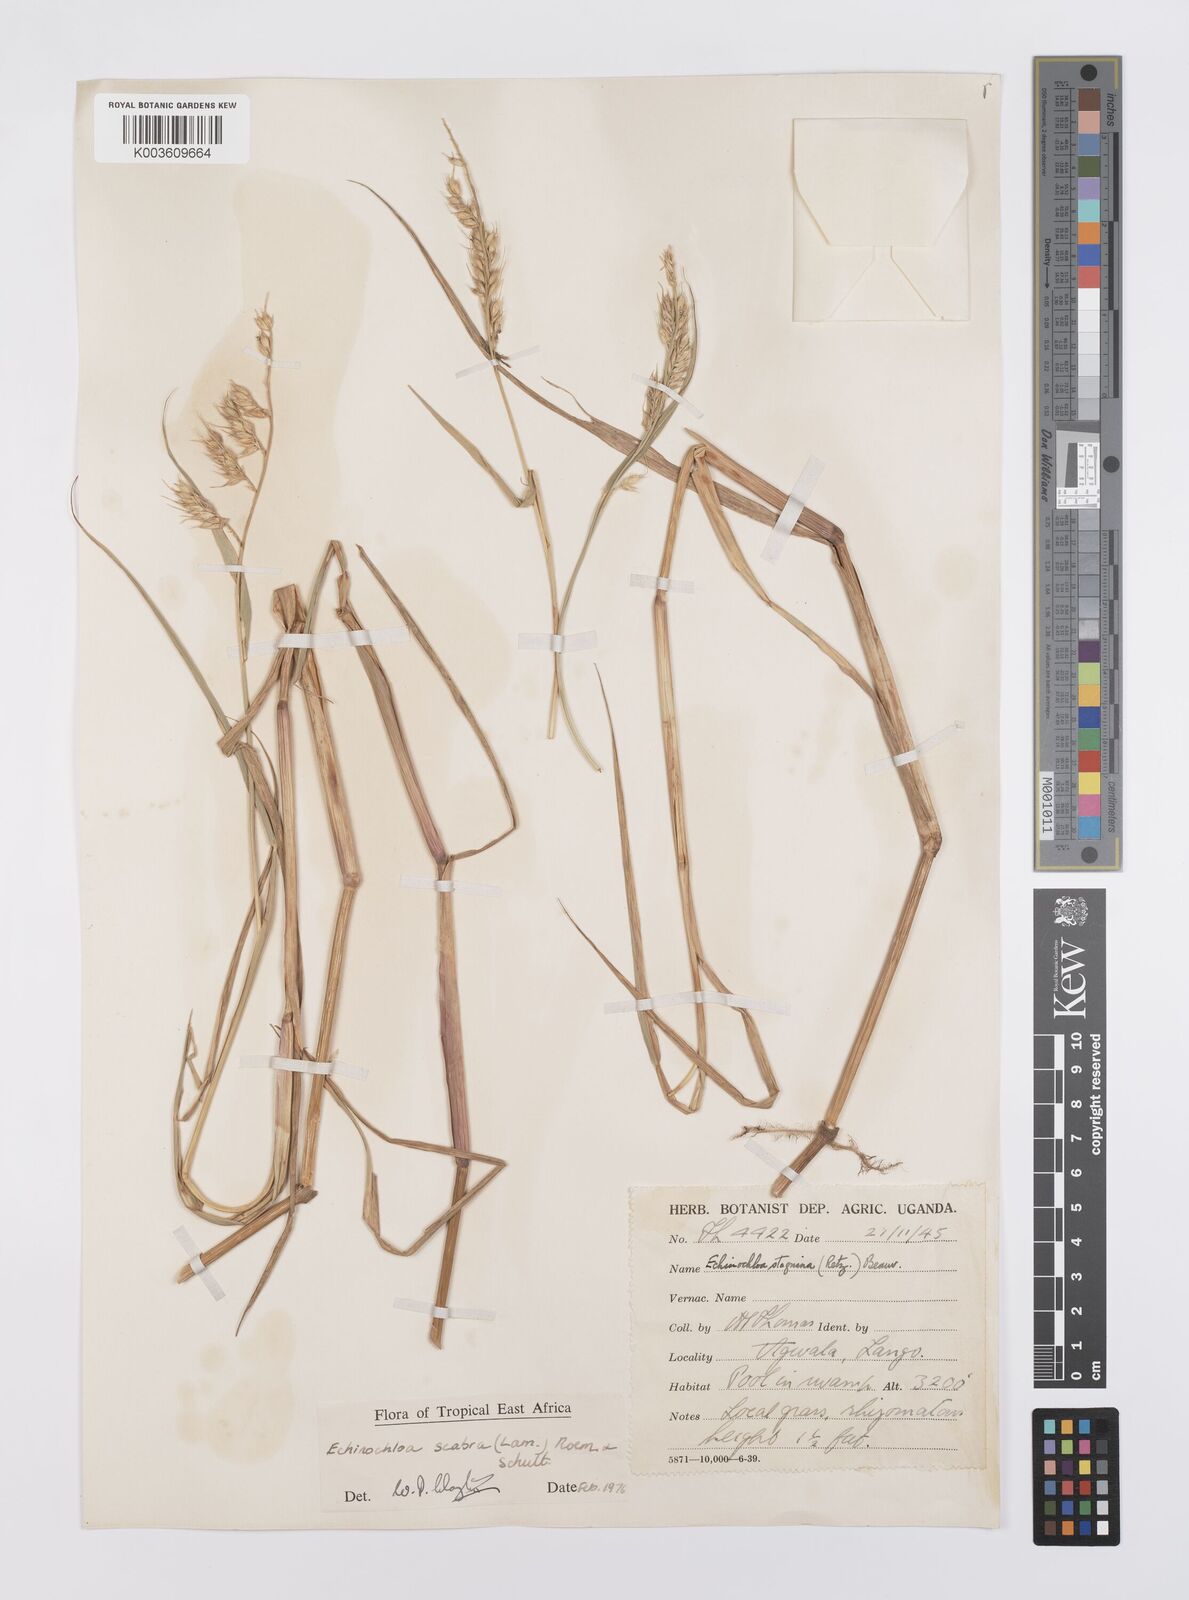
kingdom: Plantae
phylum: Tracheophyta
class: Liliopsida
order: Poales
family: Poaceae
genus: Echinochloa
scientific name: Echinochloa stagnina
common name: Burgu grass
